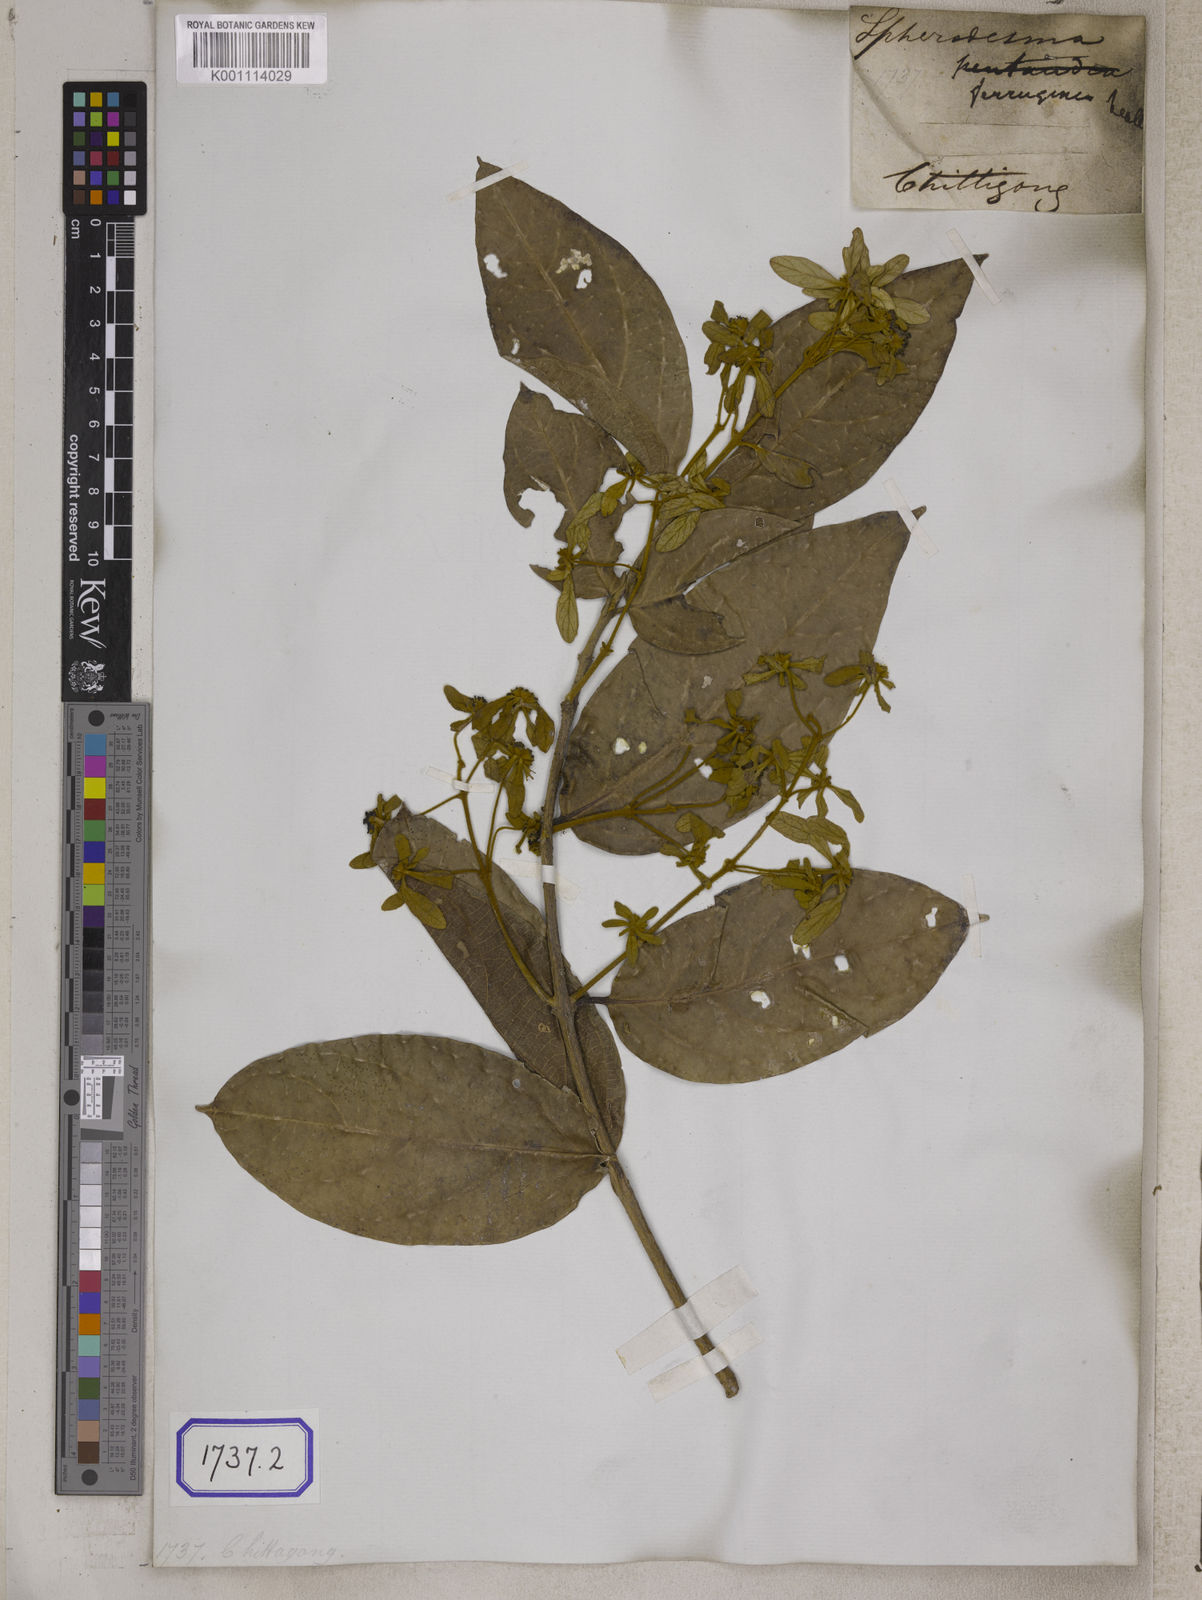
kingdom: Plantae
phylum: Tracheophyta
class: Magnoliopsida
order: Lamiales
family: Lamiaceae
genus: Sphenodesme
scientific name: Sphenodesme involucrata
